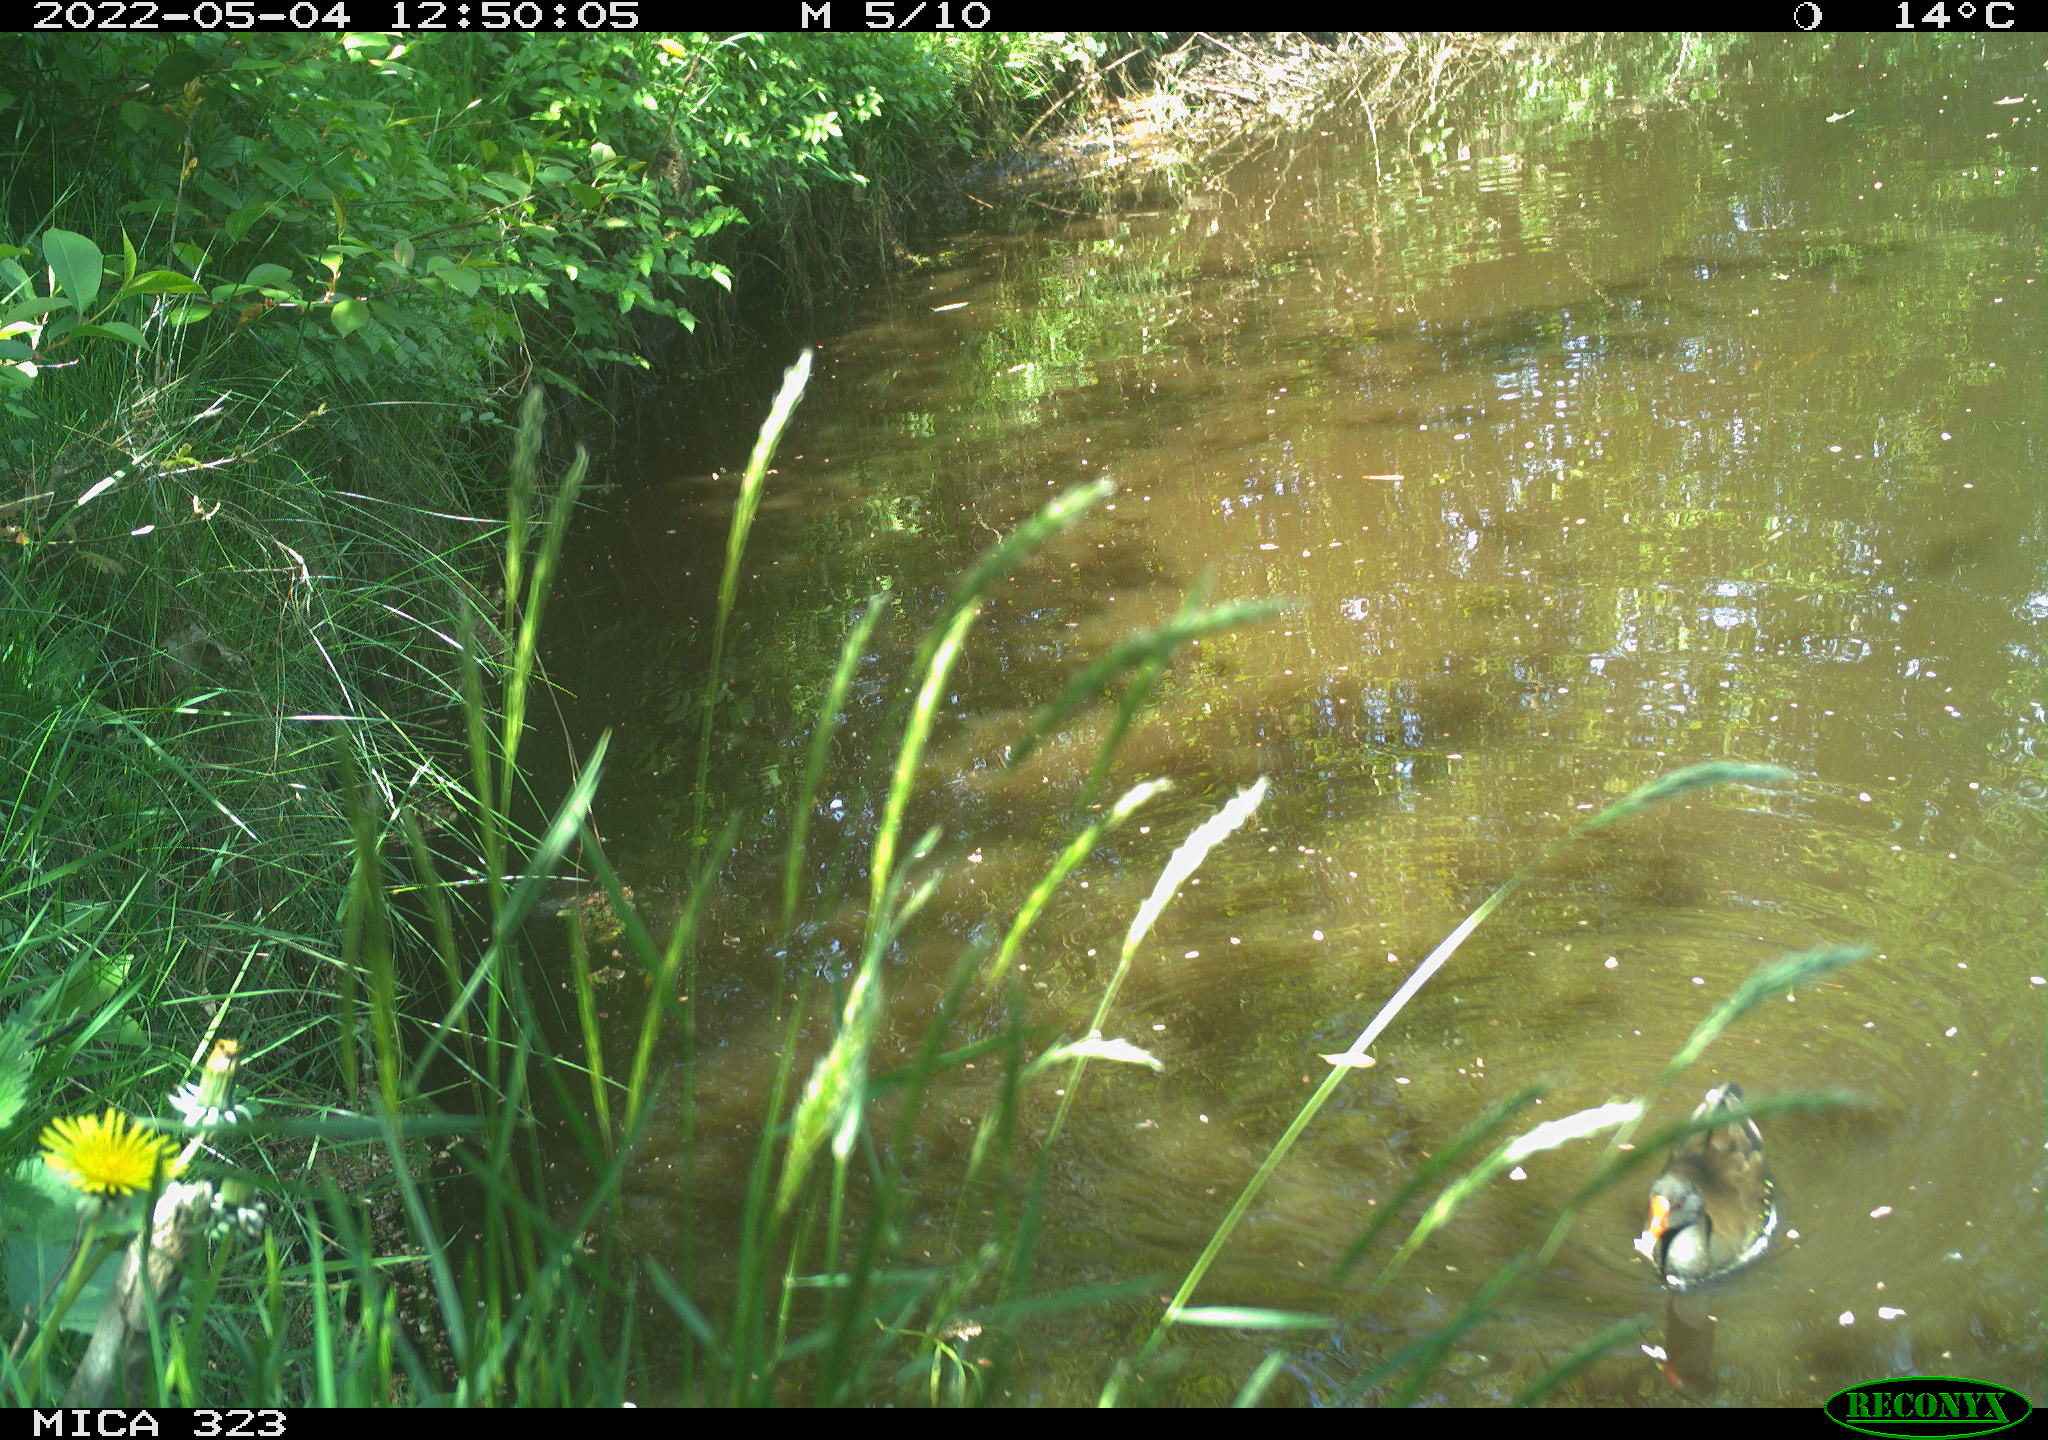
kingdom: Animalia
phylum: Chordata
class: Aves
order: Gruiformes
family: Rallidae
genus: Gallinula
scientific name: Gallinula chloropus
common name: Common moorhen
